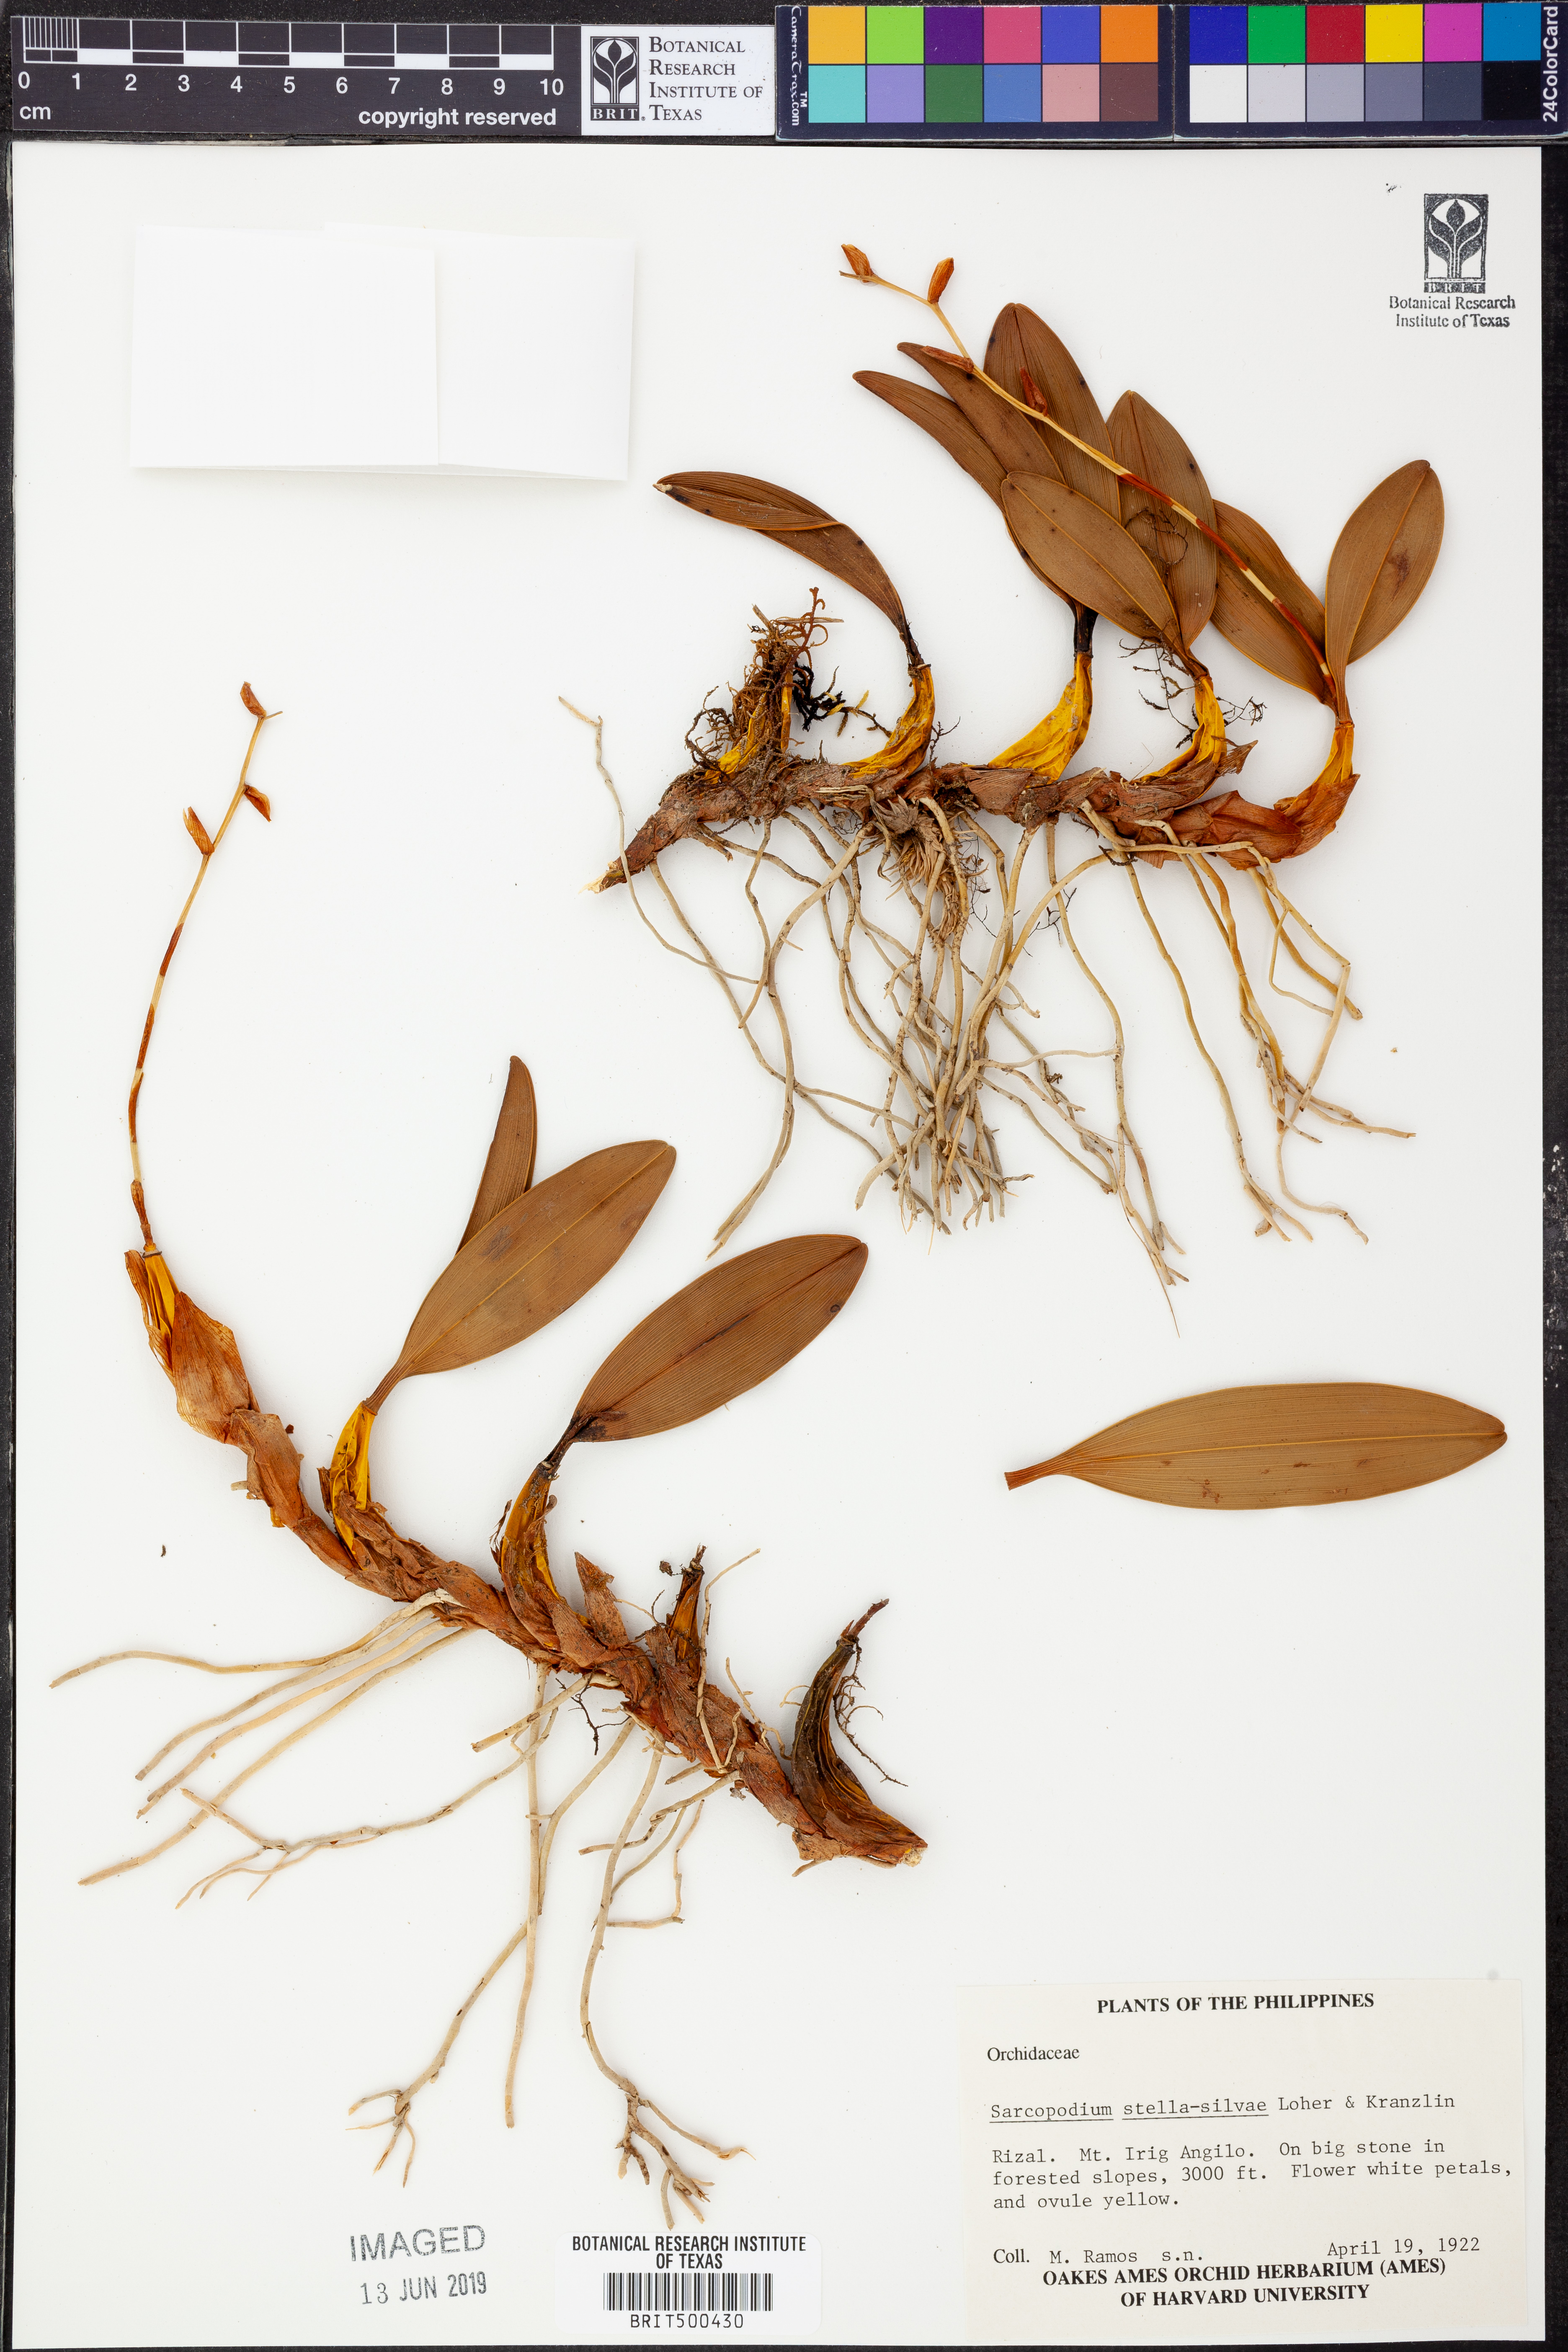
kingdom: Plantae
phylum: Tracheophyta
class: Liliopsida
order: Asparagales
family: Orchidaceae
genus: Dendrobium
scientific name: Dendrobium stella-silvae
